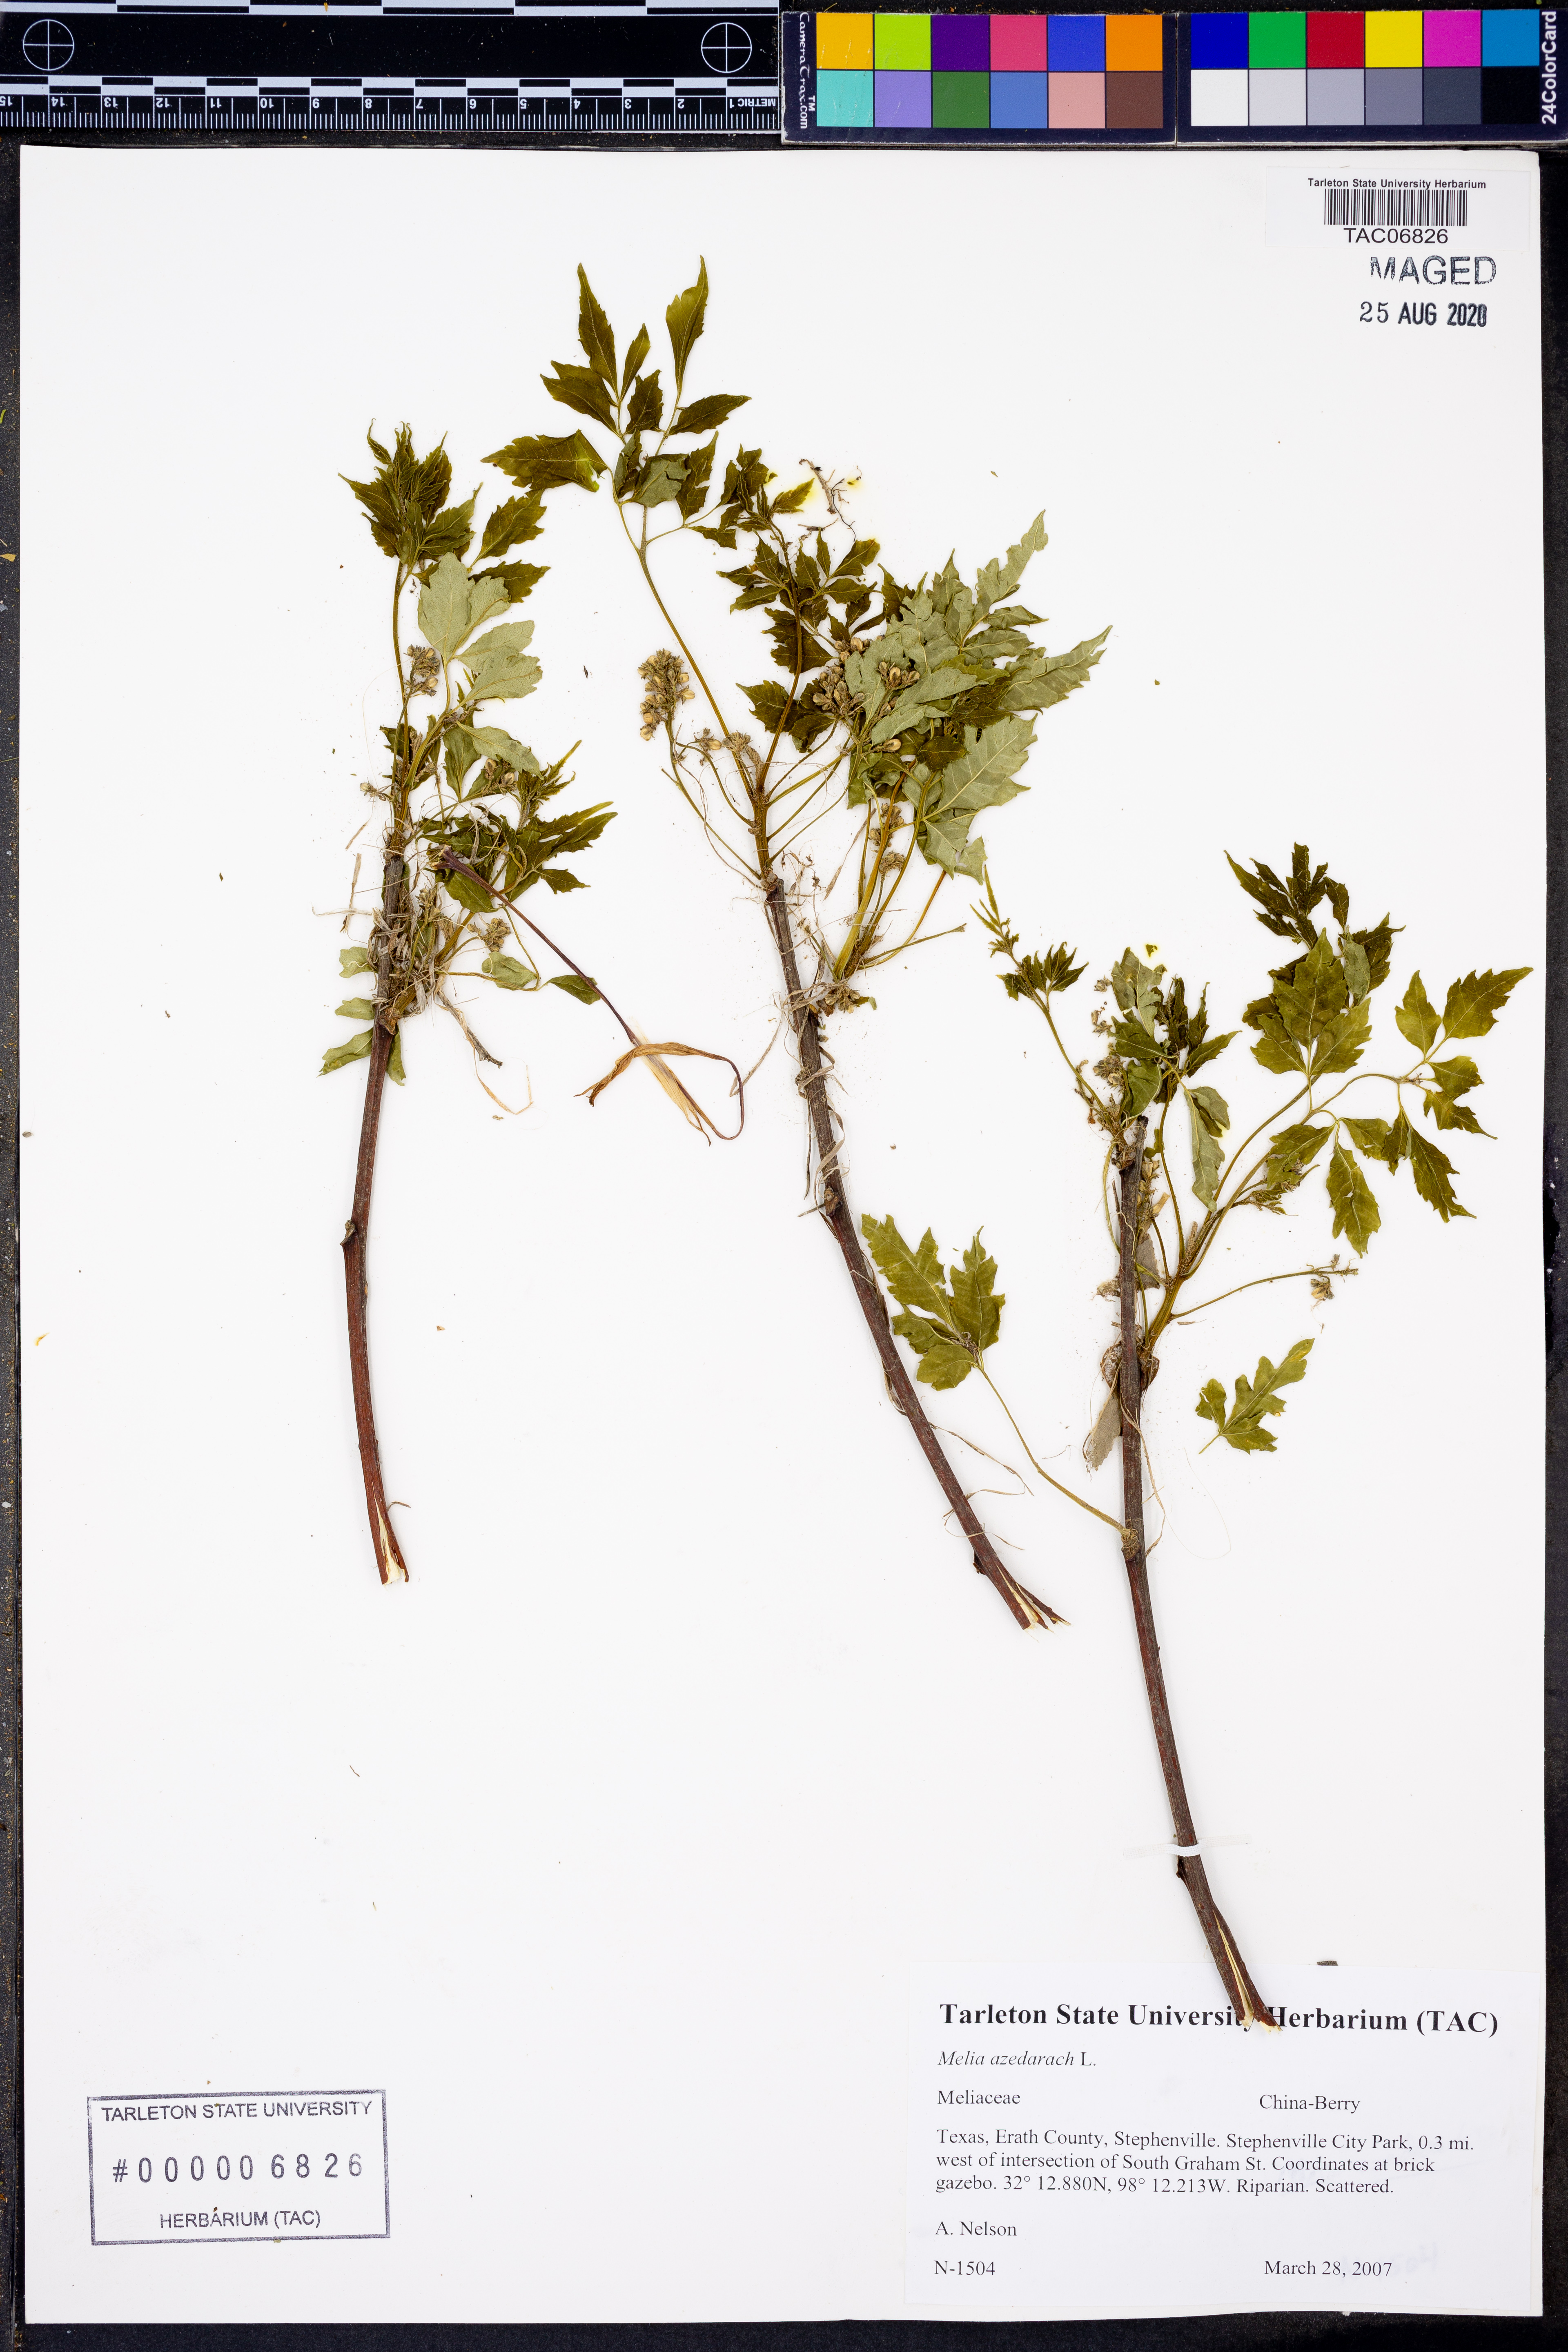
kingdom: Plantae
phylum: Tracheophyta
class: Magnoliopsida
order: Sapindales
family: Meliaceae
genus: Melia
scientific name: Melia azedarach
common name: Chinaberrytree
